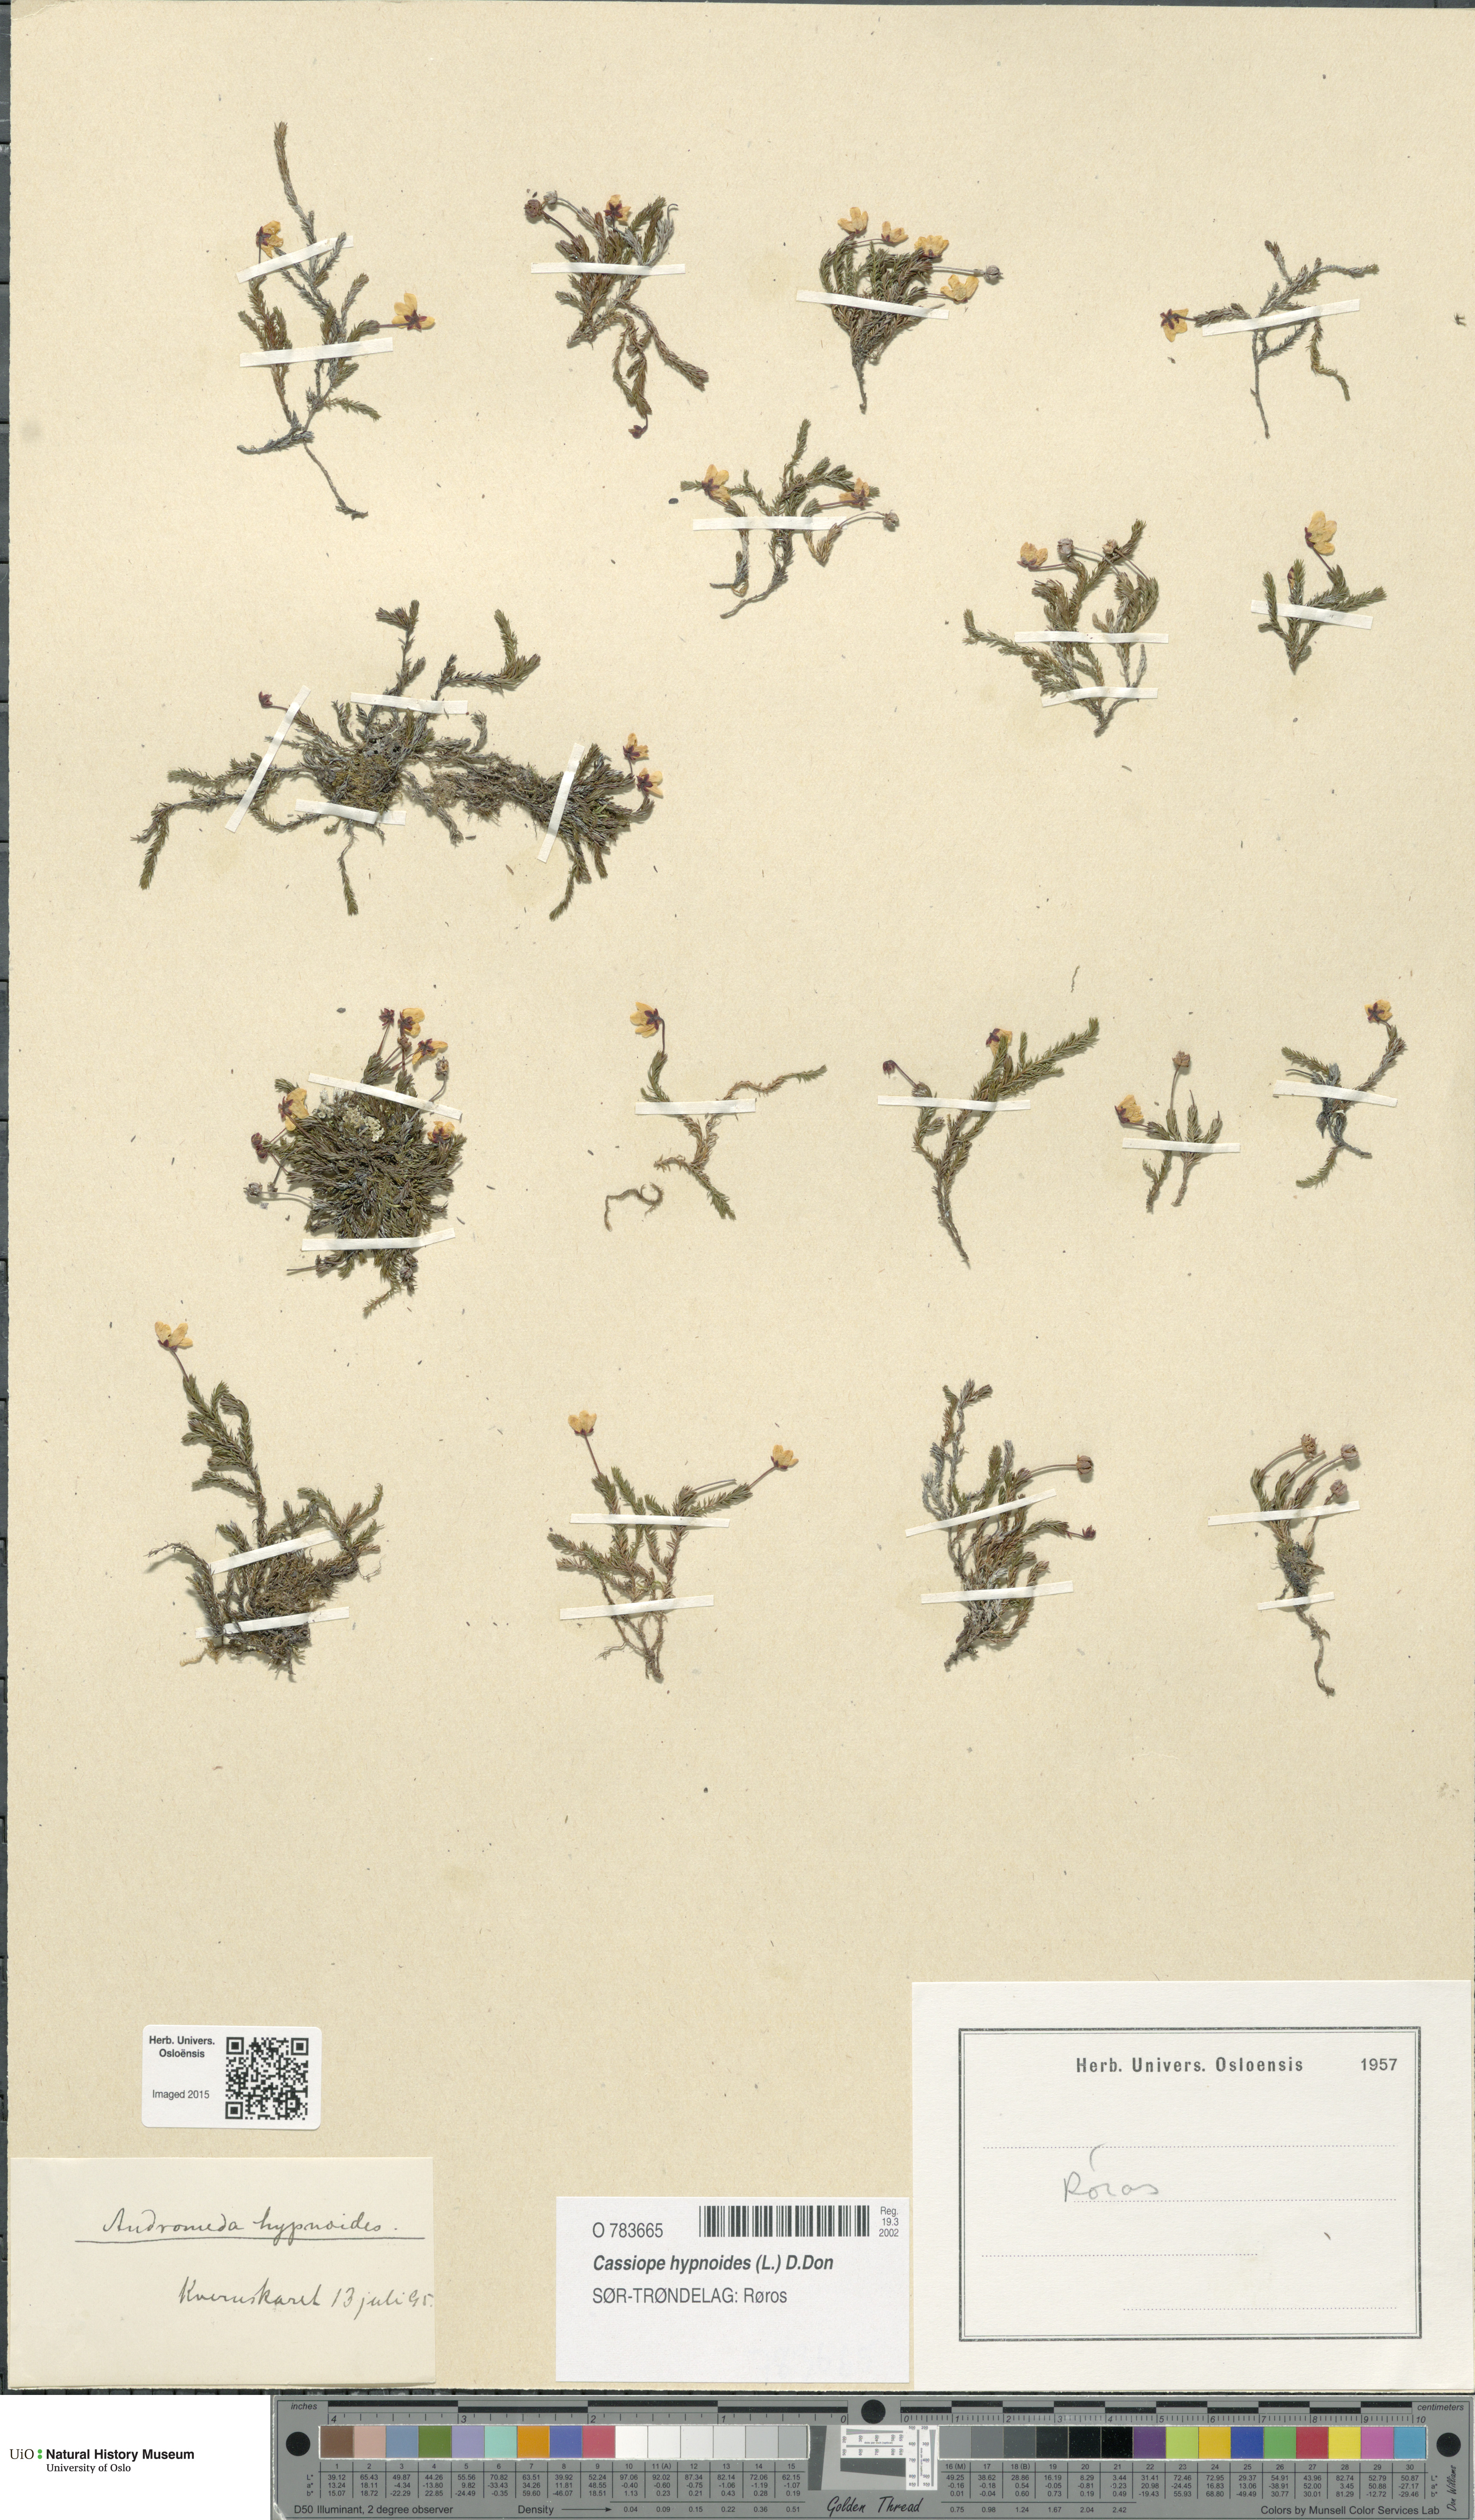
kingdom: Plantae
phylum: Tracheophyta
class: Magnoliopsida
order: Ericales
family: Ericaceae
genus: Harrimanella
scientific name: Harrimanella hypnoides
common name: Moss bell heather
